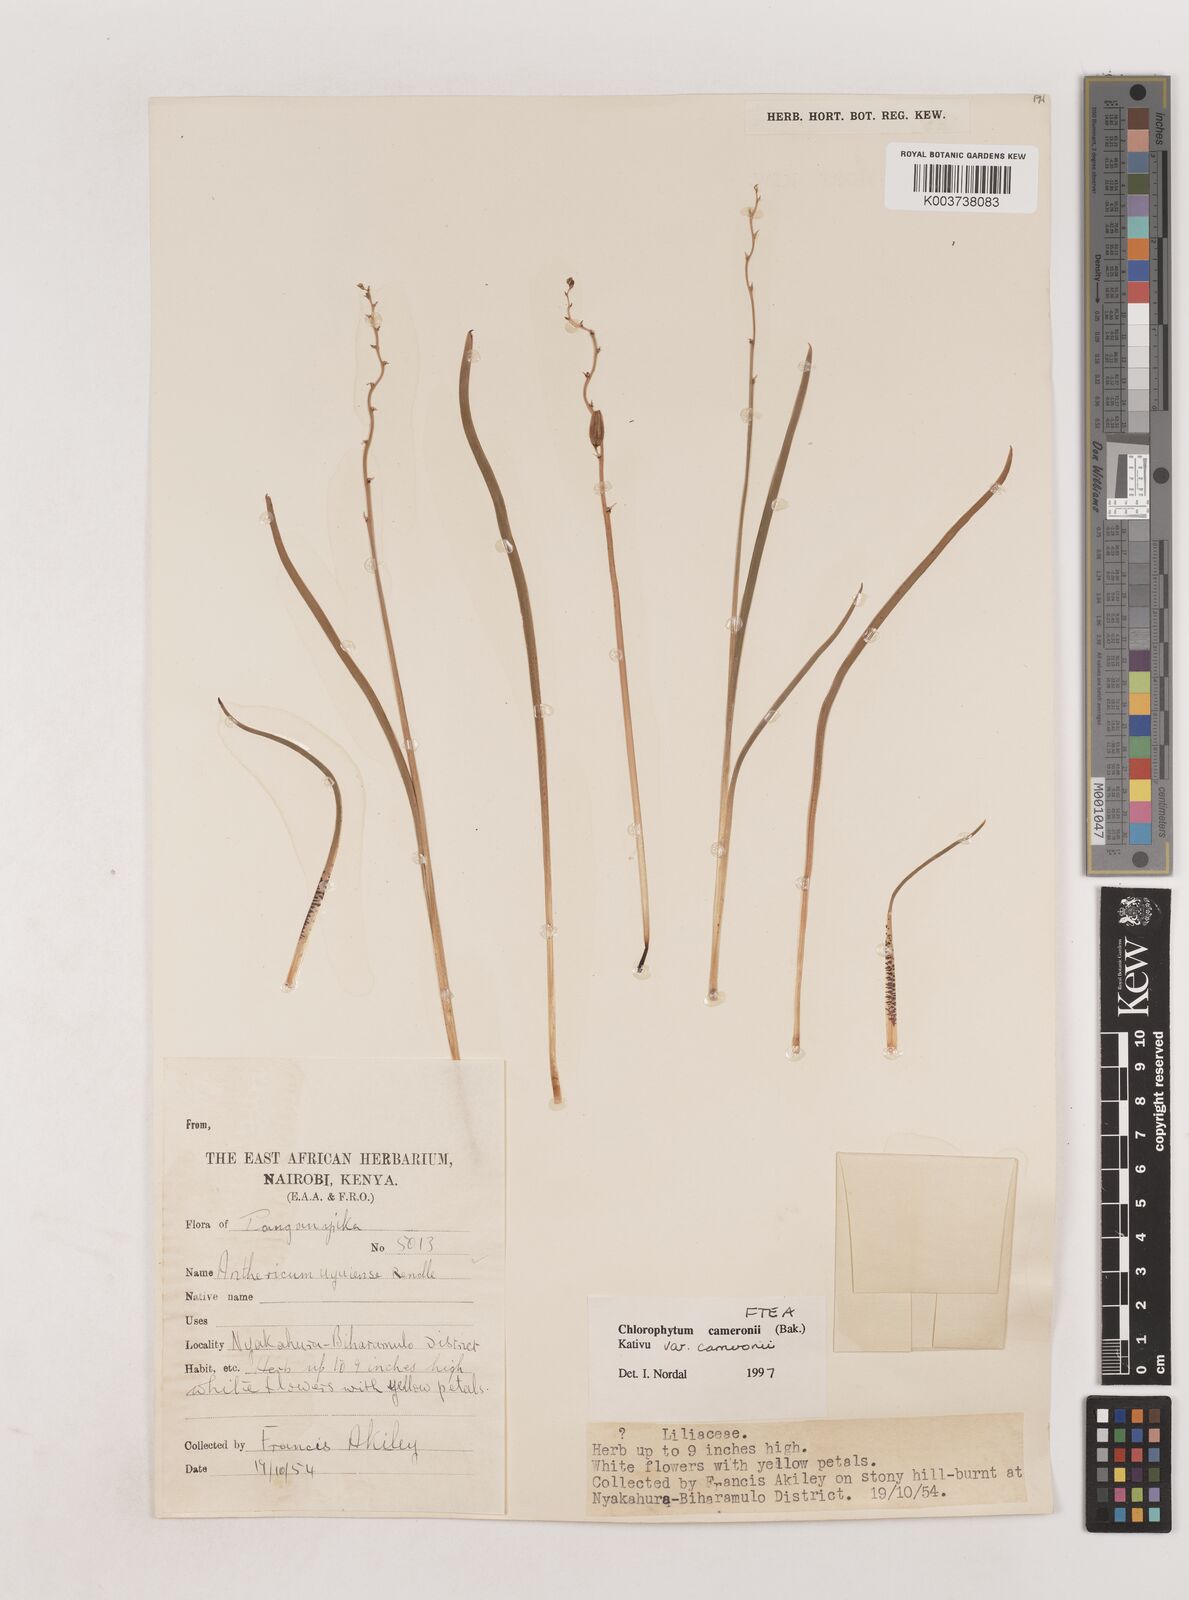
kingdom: Plantae
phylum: Tracheophyta
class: Liliopsida
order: Asparagales
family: Asparagaceae
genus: Chlorophytum
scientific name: Chlorophytum cameronii
